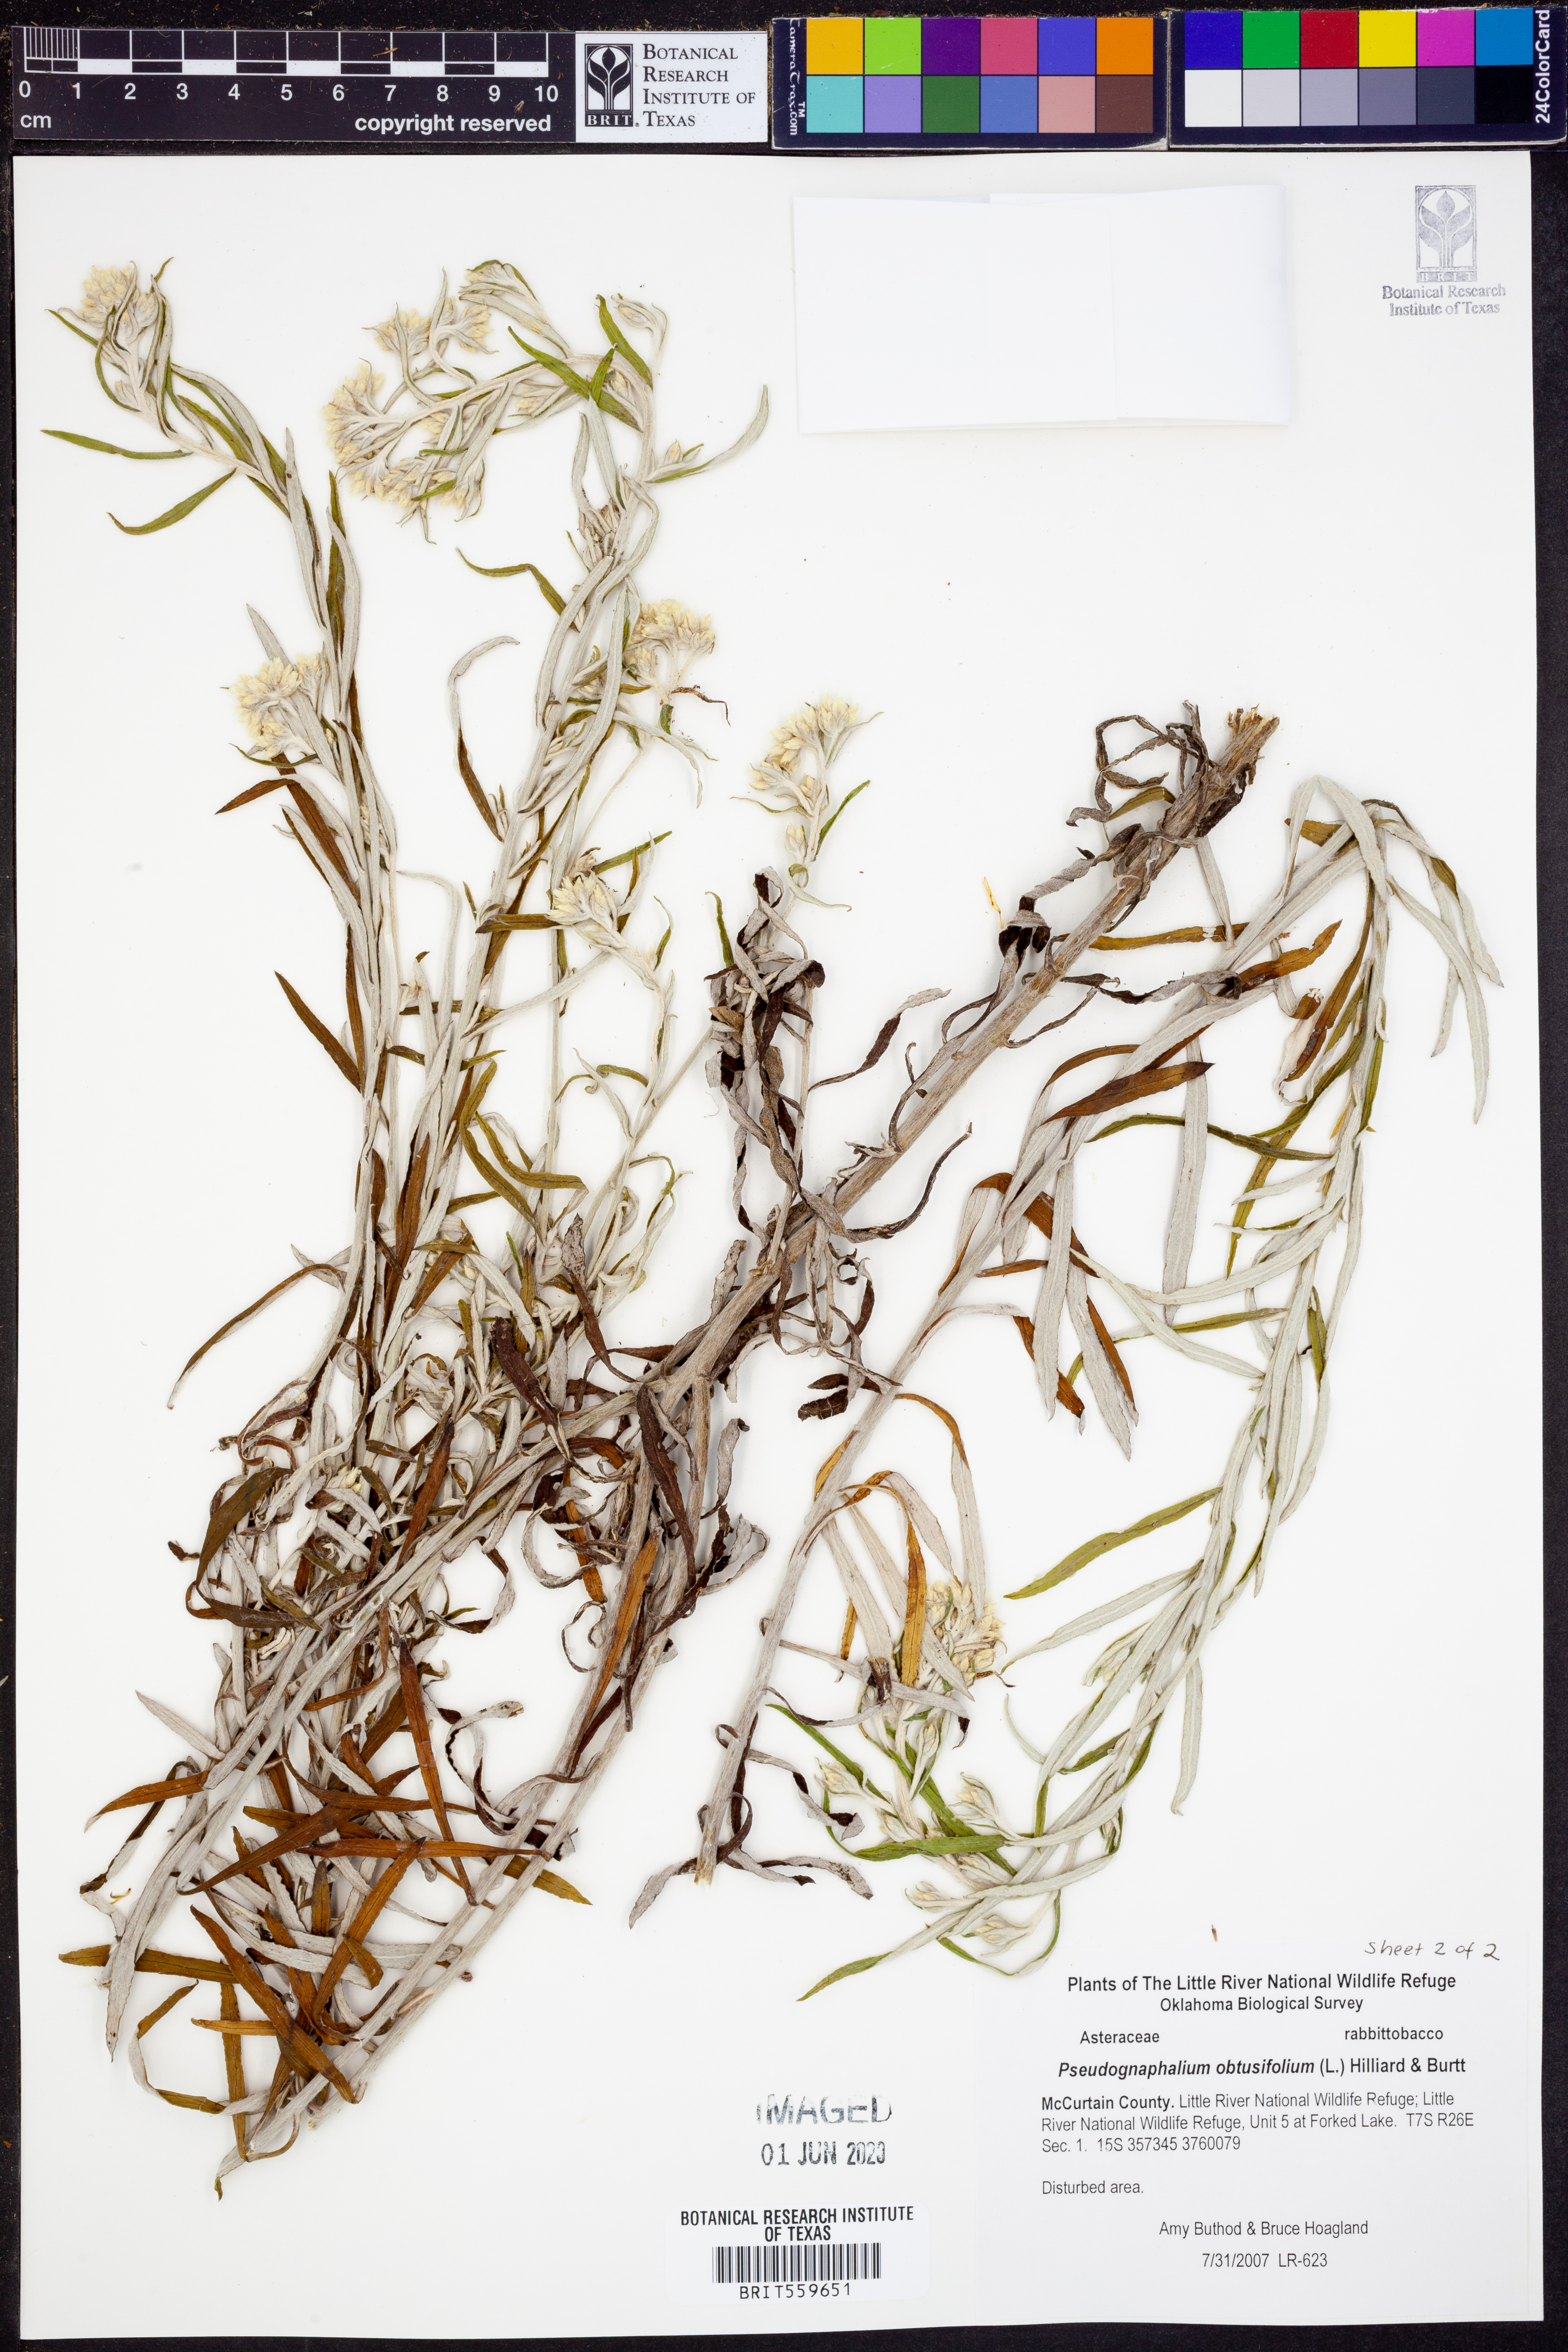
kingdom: Plantae
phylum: Tracheophyta
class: Magnoliopsida
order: Asterales
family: Asteraceae
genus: Pseudognaphalium
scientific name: Pseudognaphalium obtusifolium
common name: Eastern rabbit-tobacco
